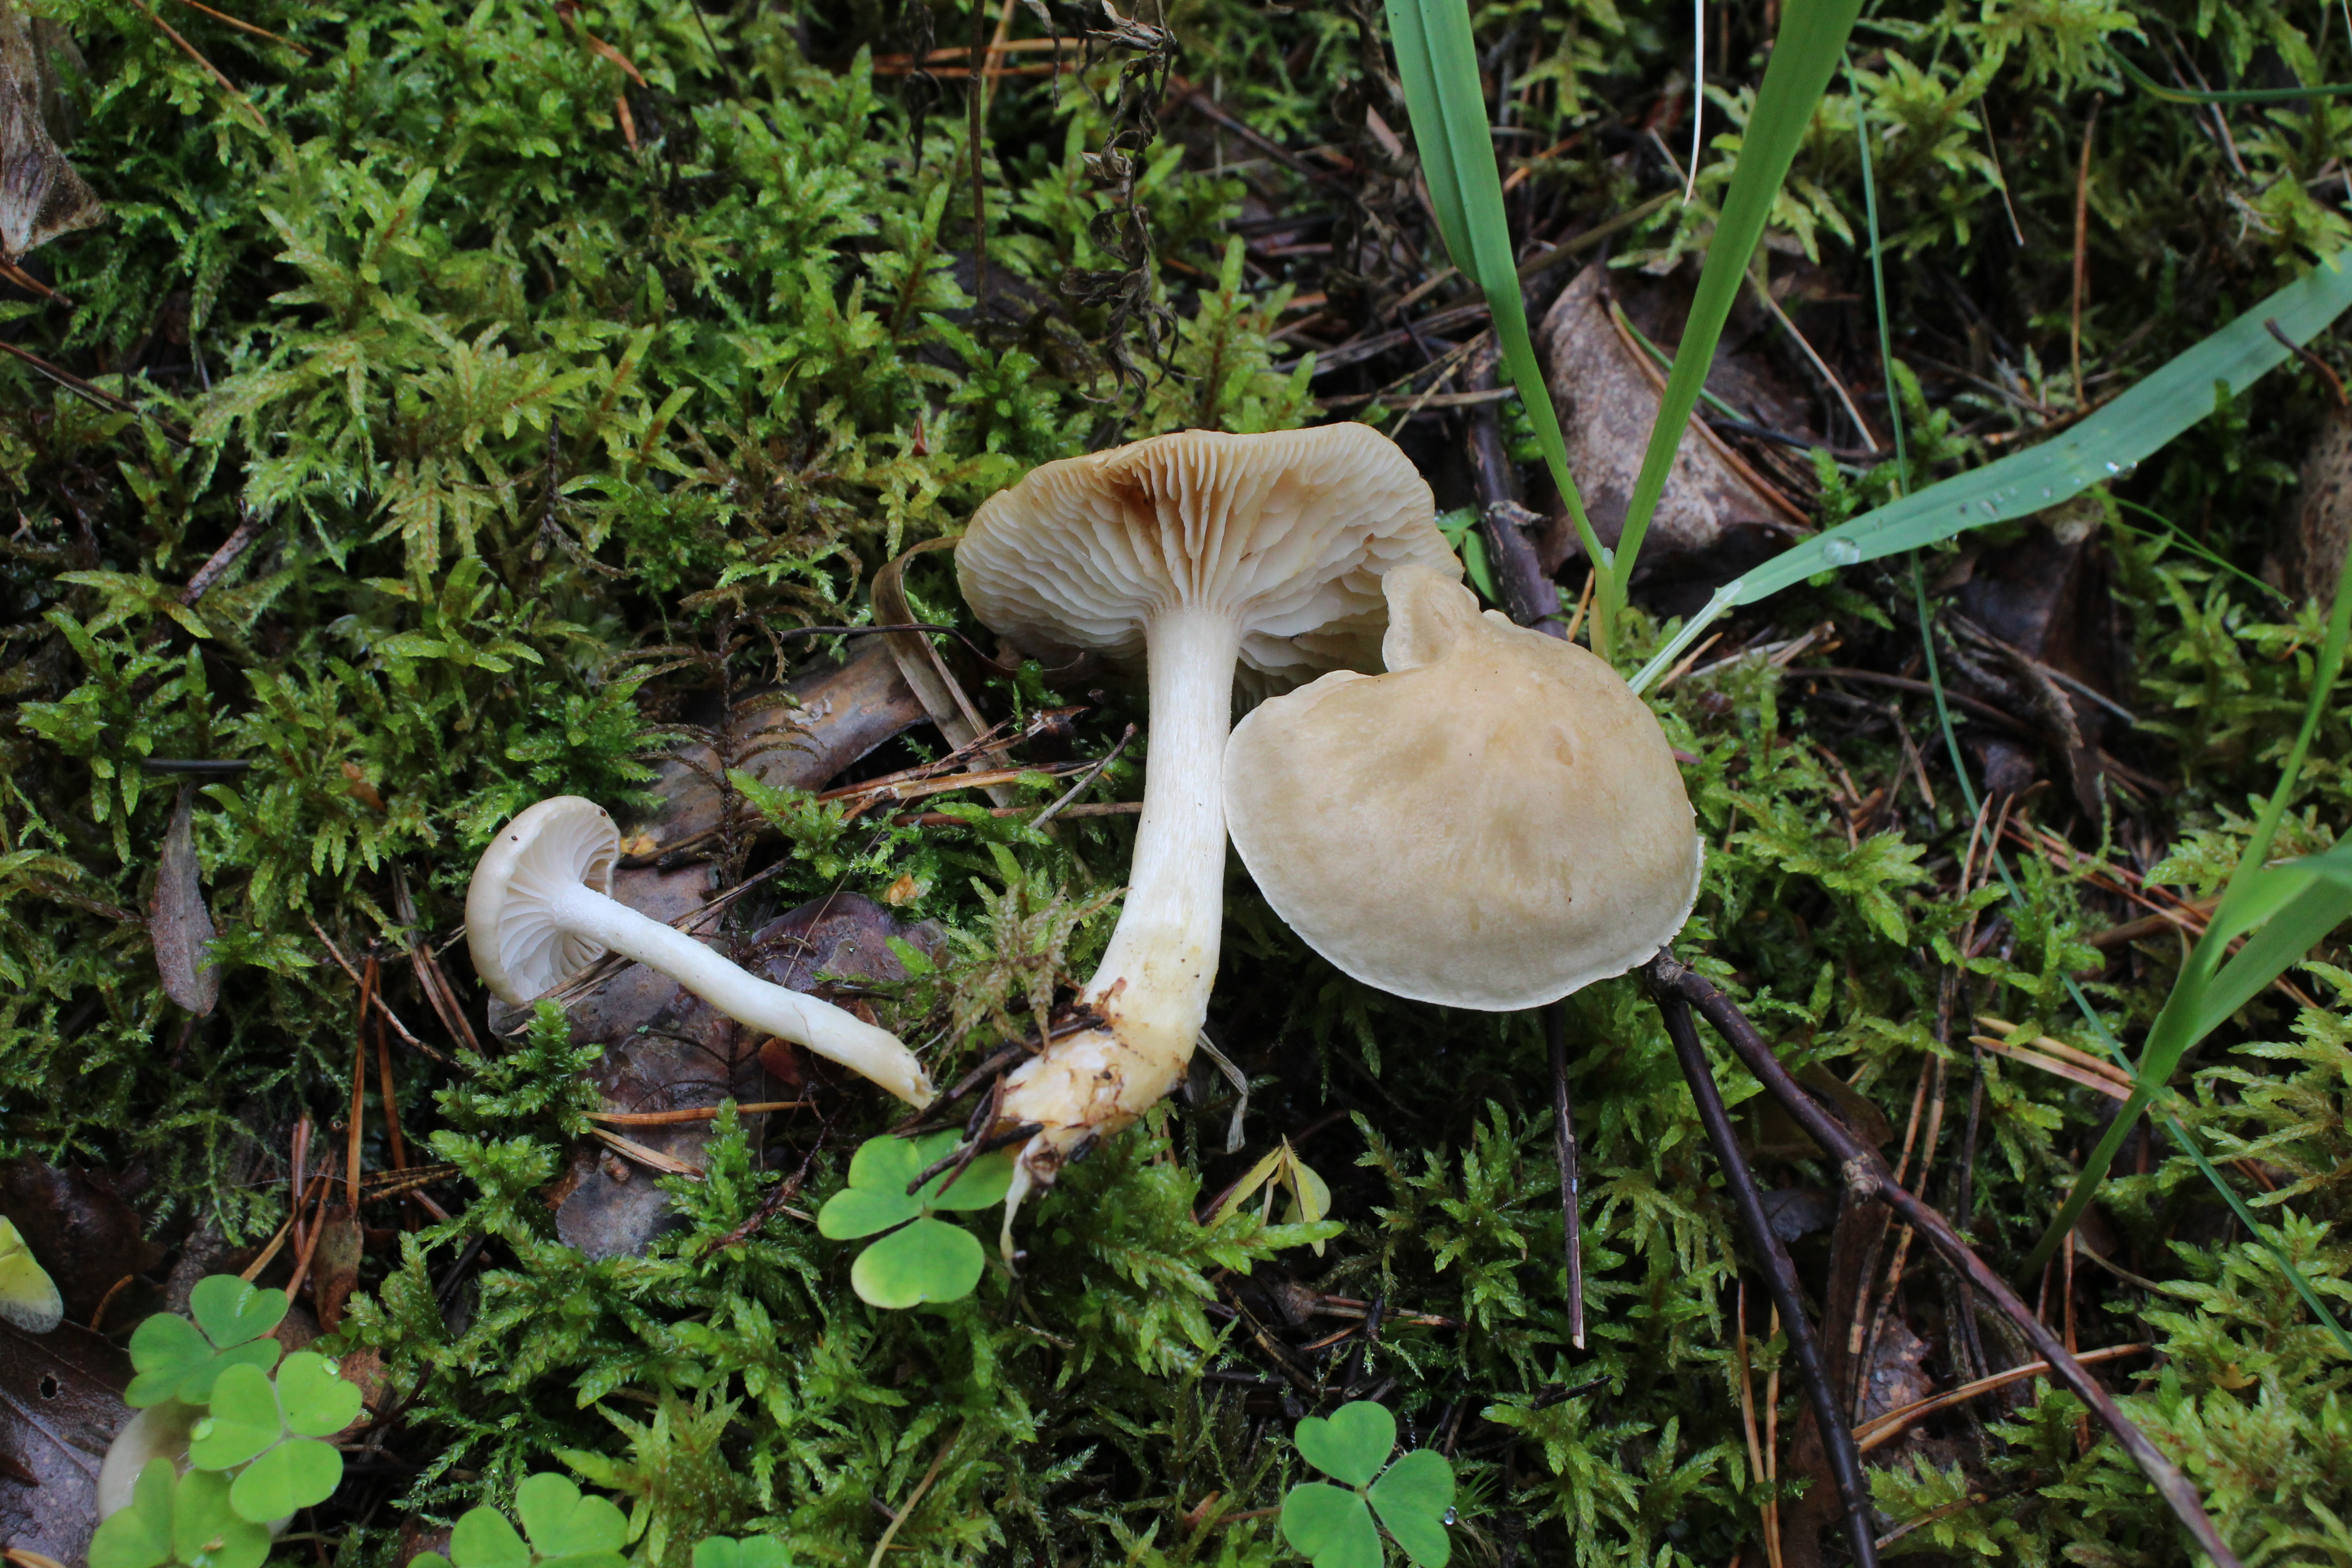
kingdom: Fungi
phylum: Basidiomycota
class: Agaricomycetes
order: Agaricales
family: Tricholomataceae
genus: Tricholoma
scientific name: Tricholoma inamoenum
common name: Gassy knight
